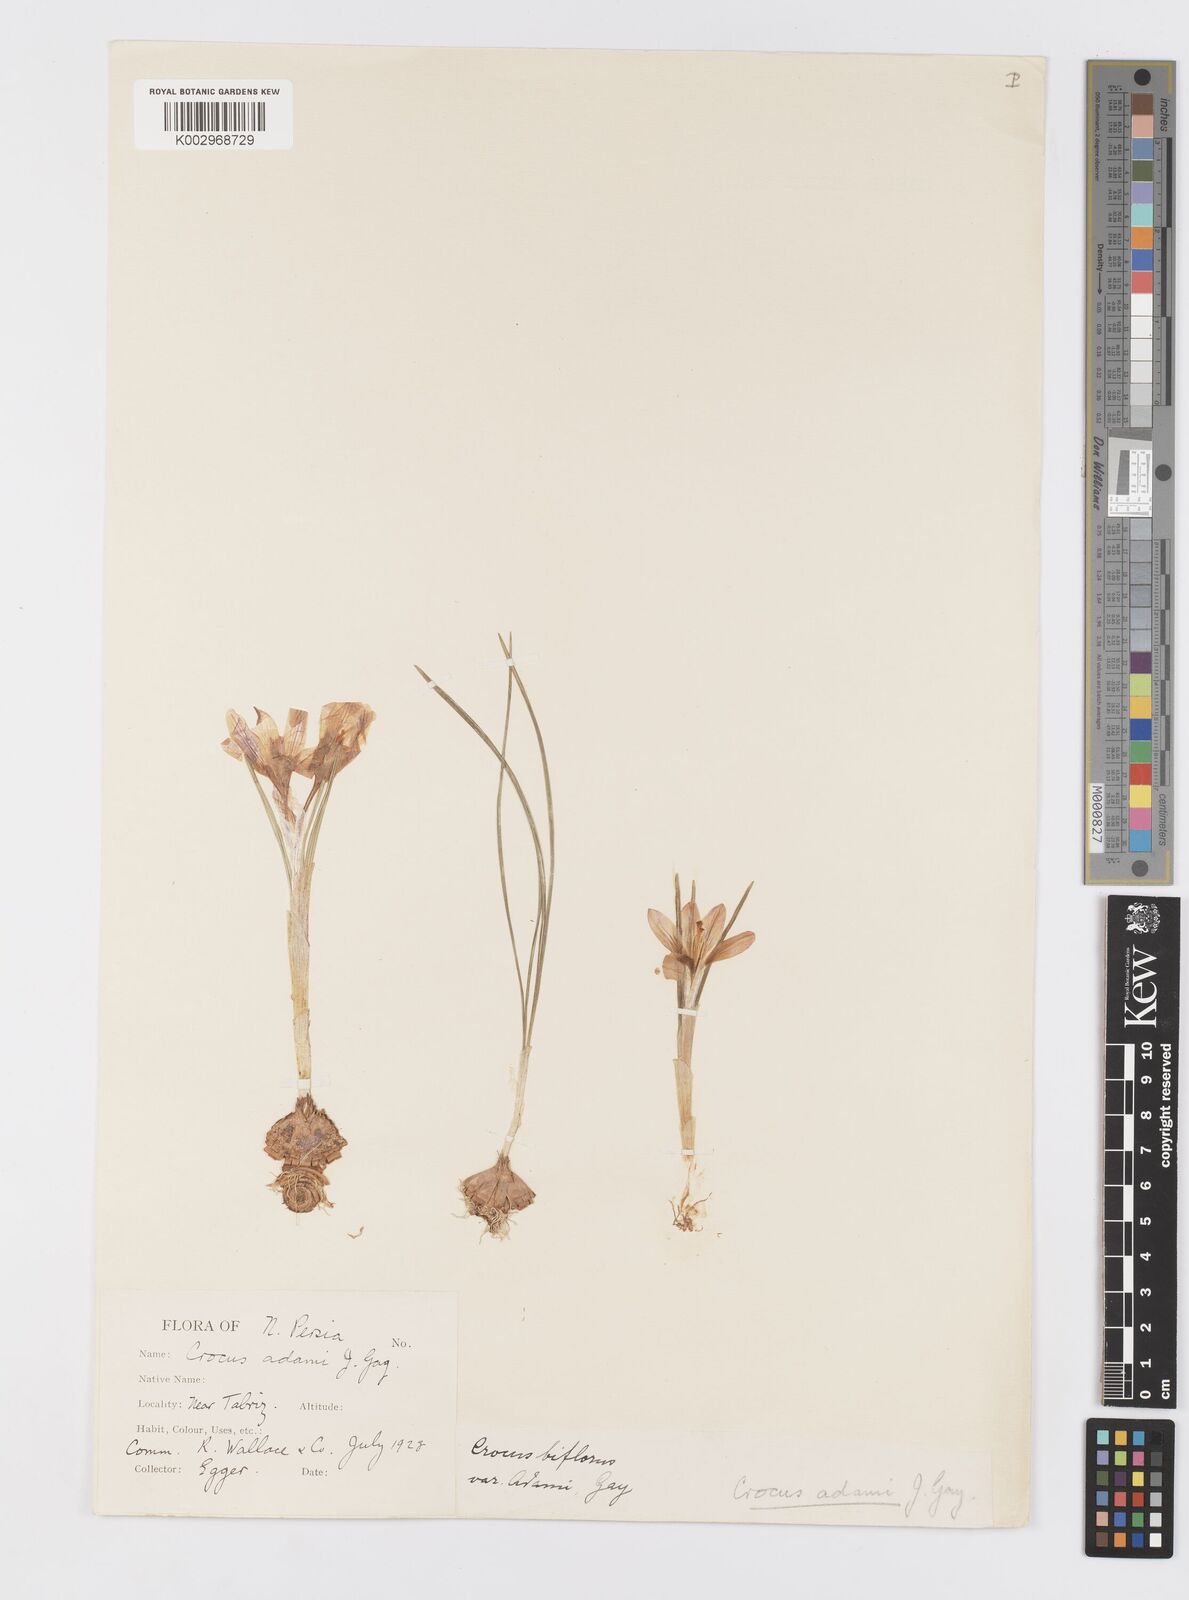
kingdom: Plantae
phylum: Tracheophyta
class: Liliopsida
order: Asparagales
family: Iridaceae
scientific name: Iridaceae
